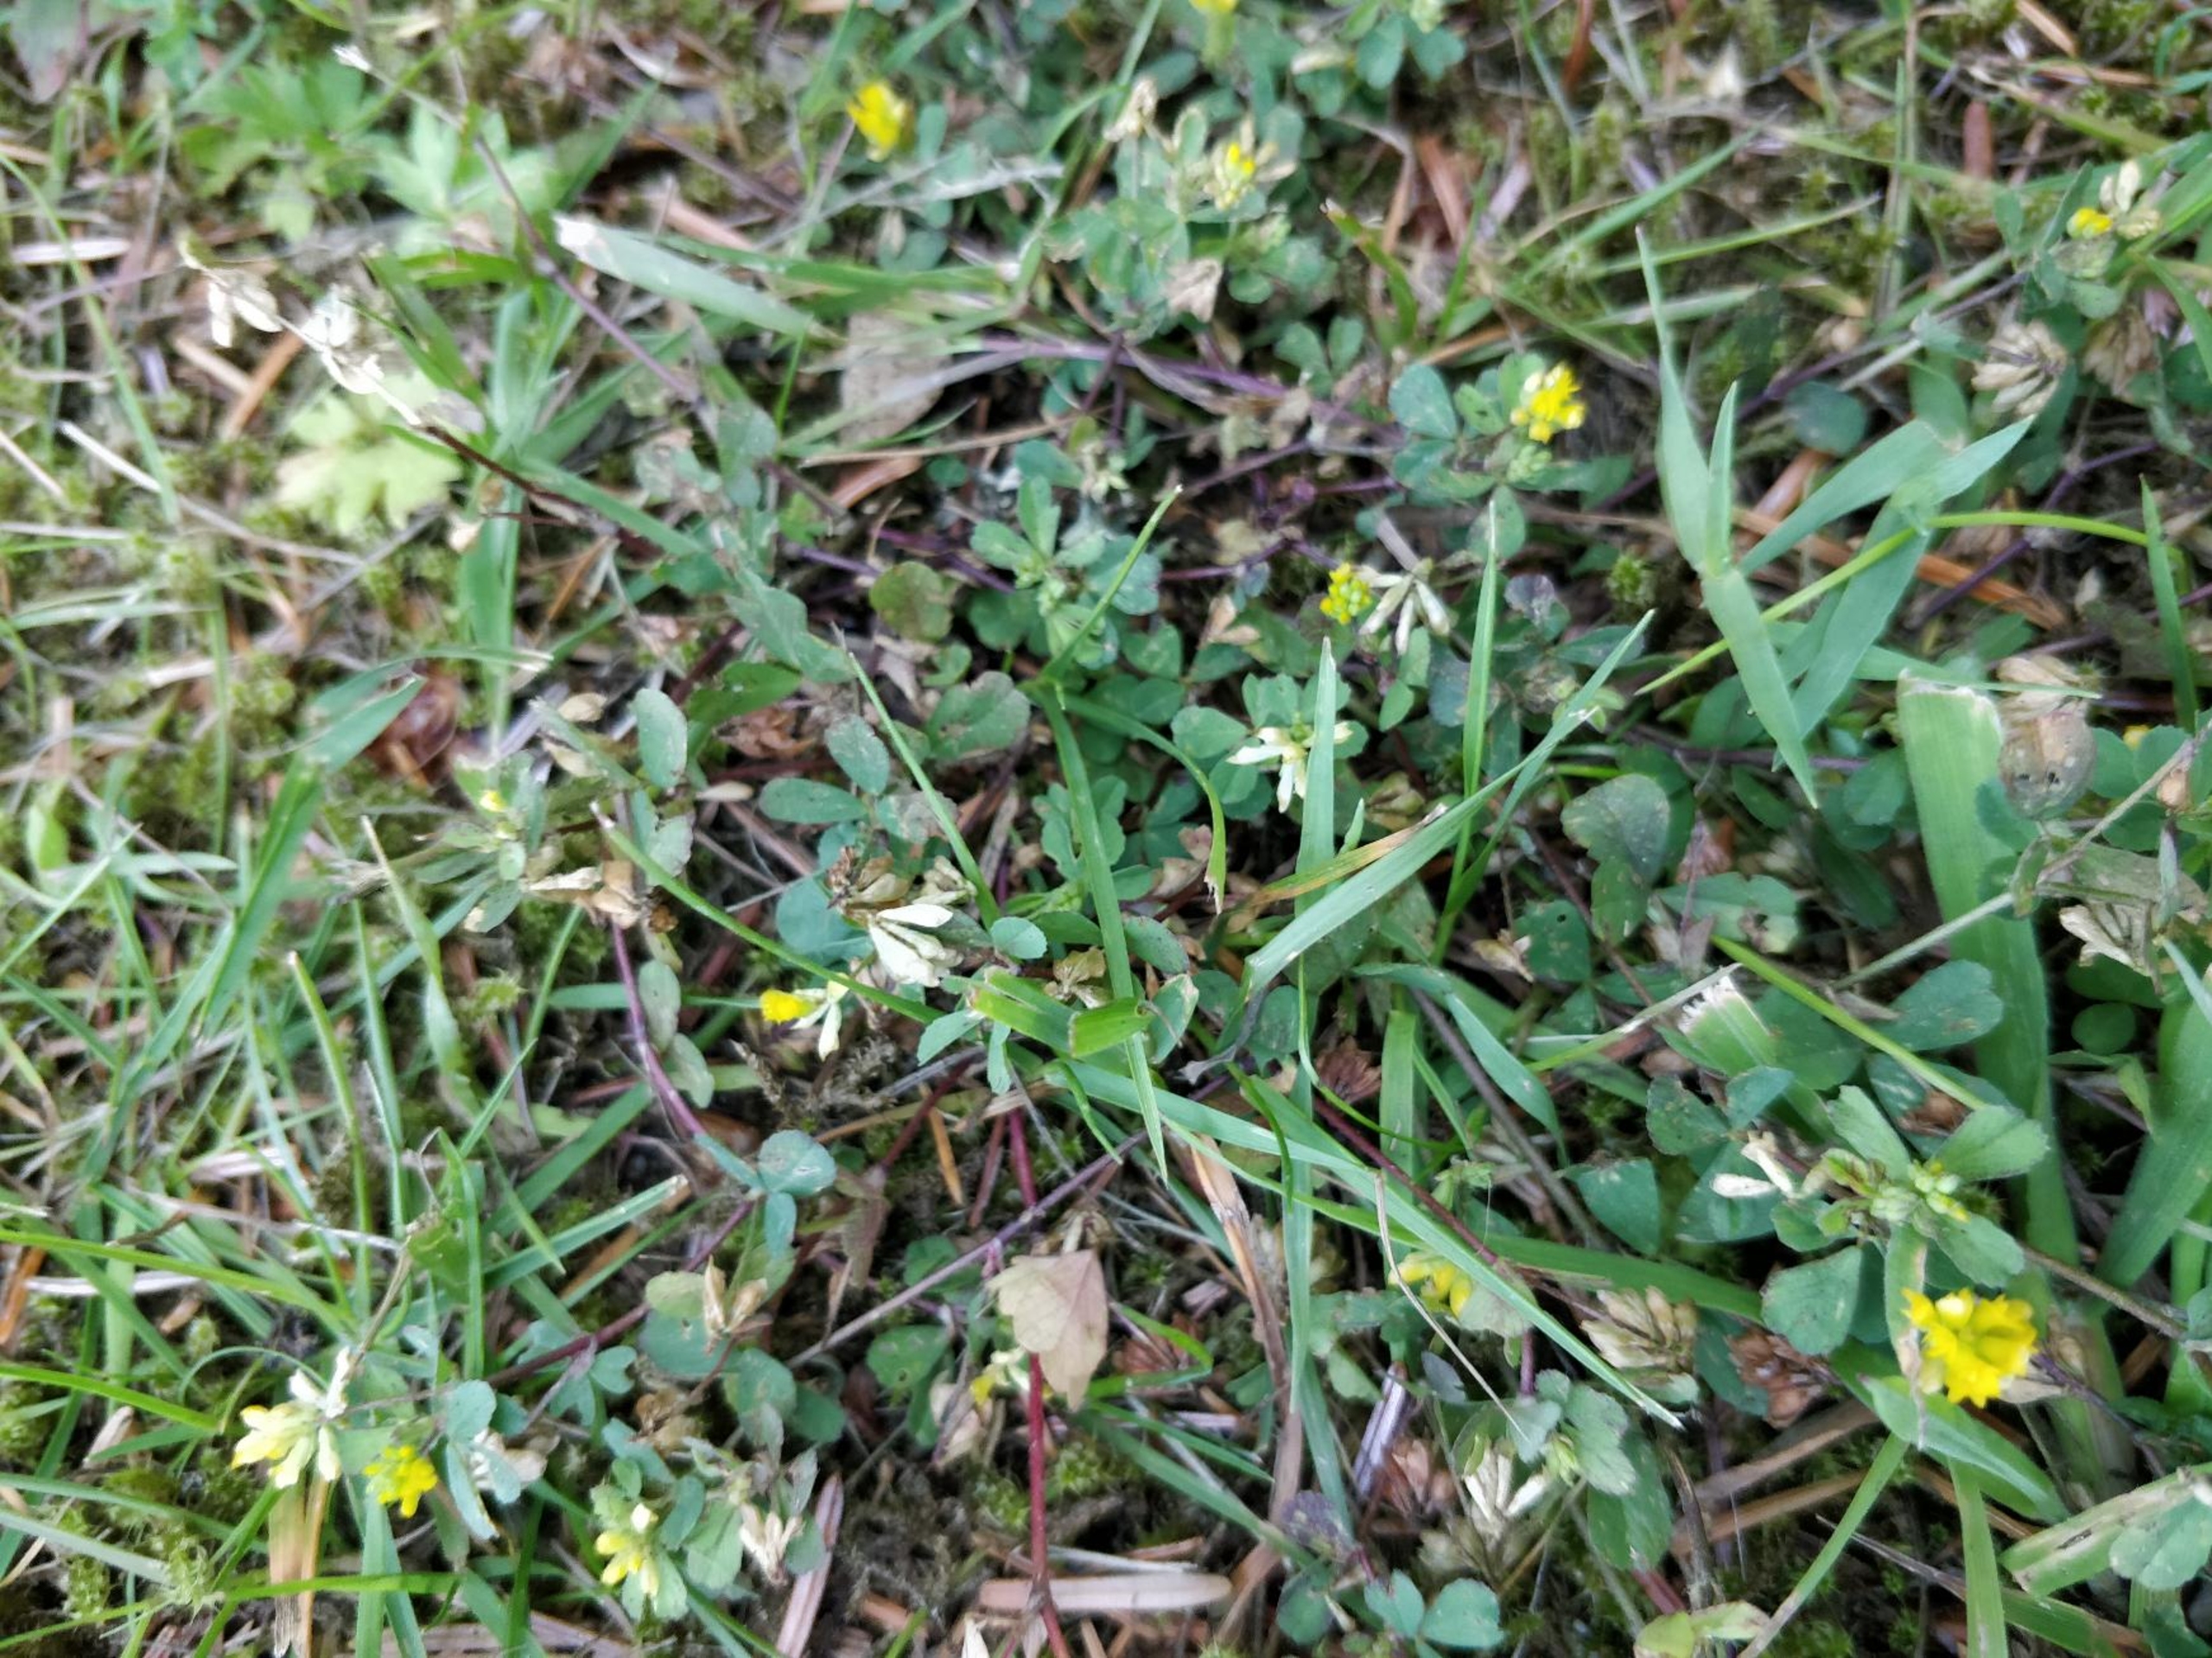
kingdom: Plantae
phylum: Tracheophyta
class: Magnoliopsida
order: Fabales
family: Fabaceae
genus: Trifolium
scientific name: Trifolium dubium
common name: Fin kløver
